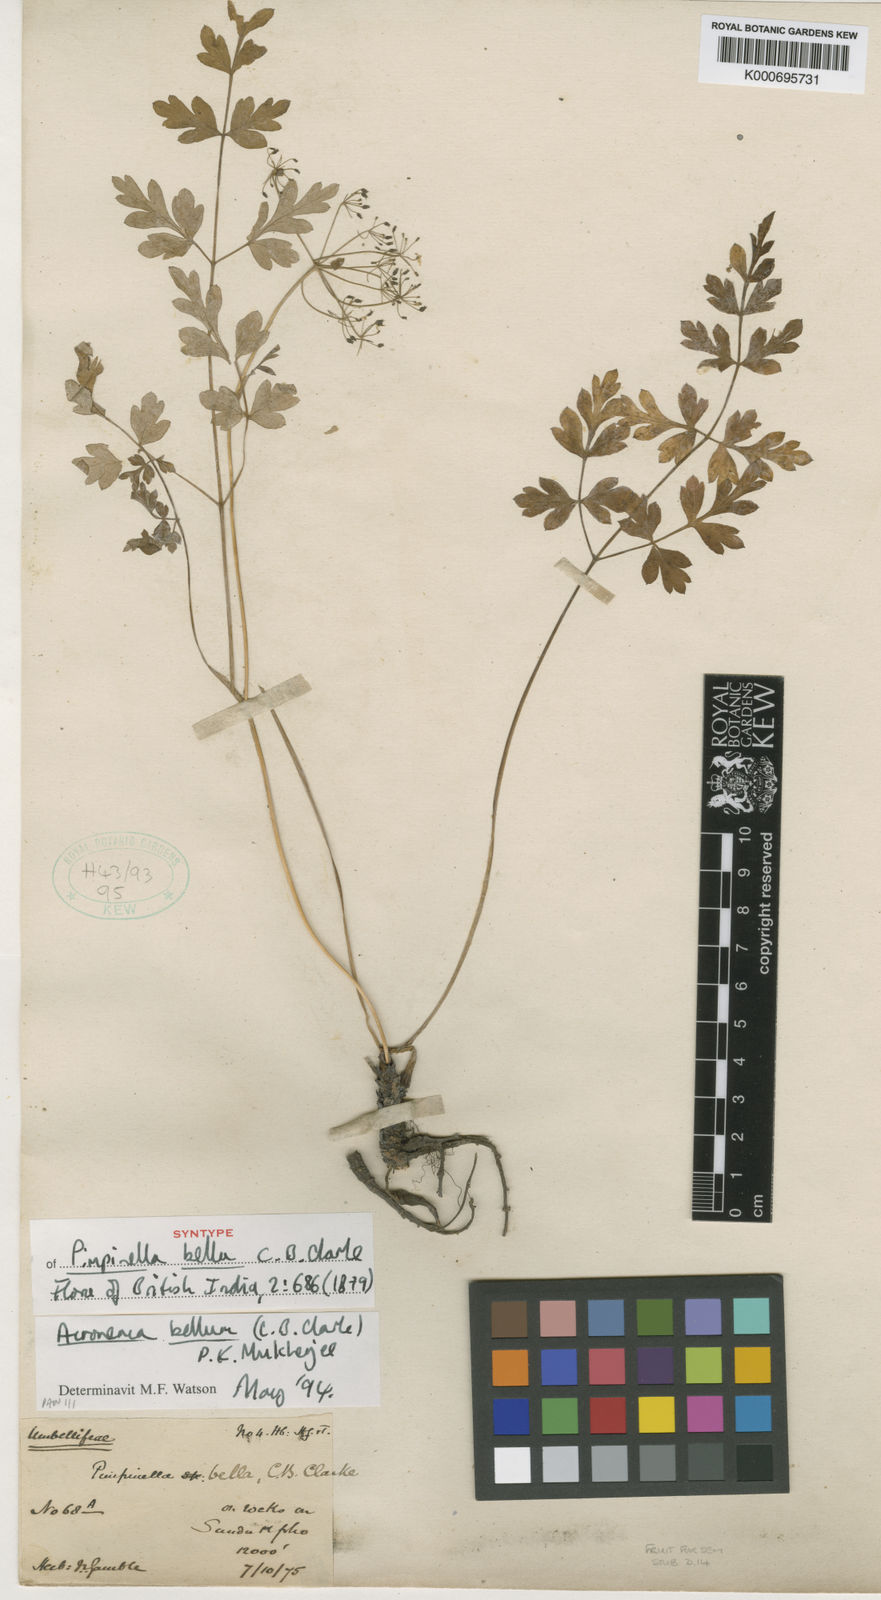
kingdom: Plantae
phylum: Tracheophyta
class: Magnoliopsida
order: Apiales
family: Apiaceae
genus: Sinocarum
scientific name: Sinocarum bellum
